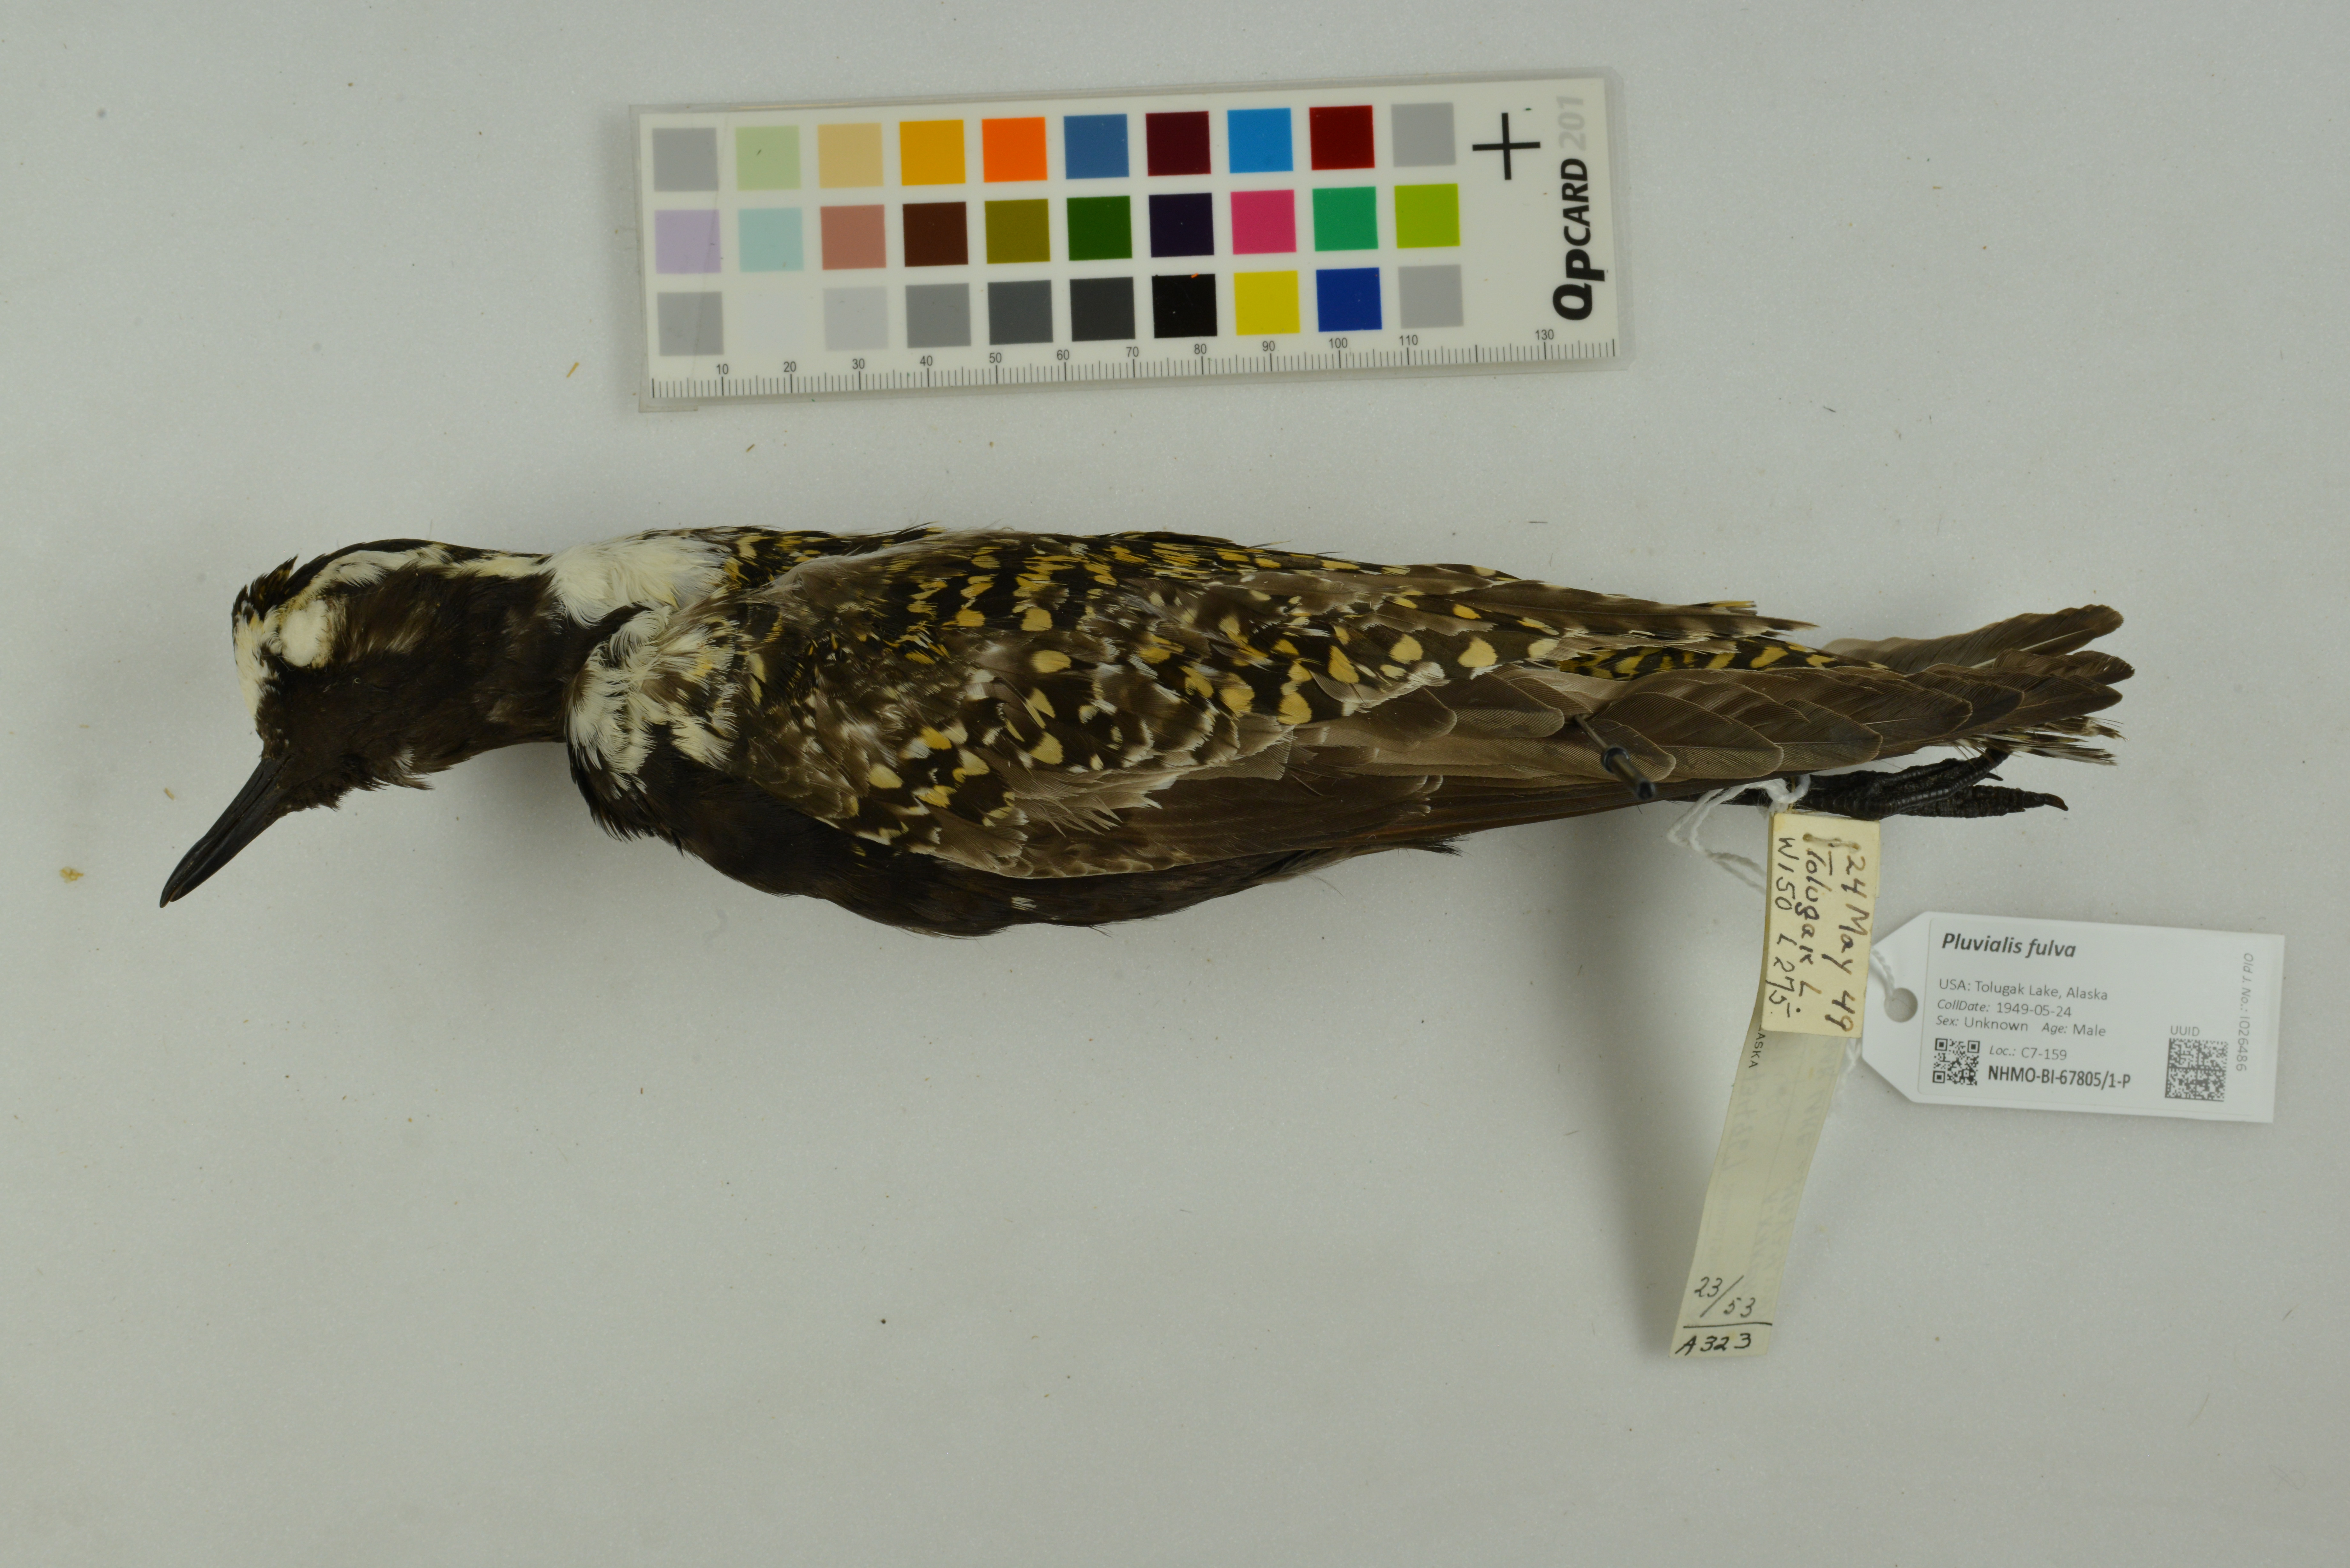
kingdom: Animalia
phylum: Chordata
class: Aves
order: Charadriiformes
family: Charadriidae
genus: Pluvialis
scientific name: Pluvialis fulva
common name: Pacific golden plover
